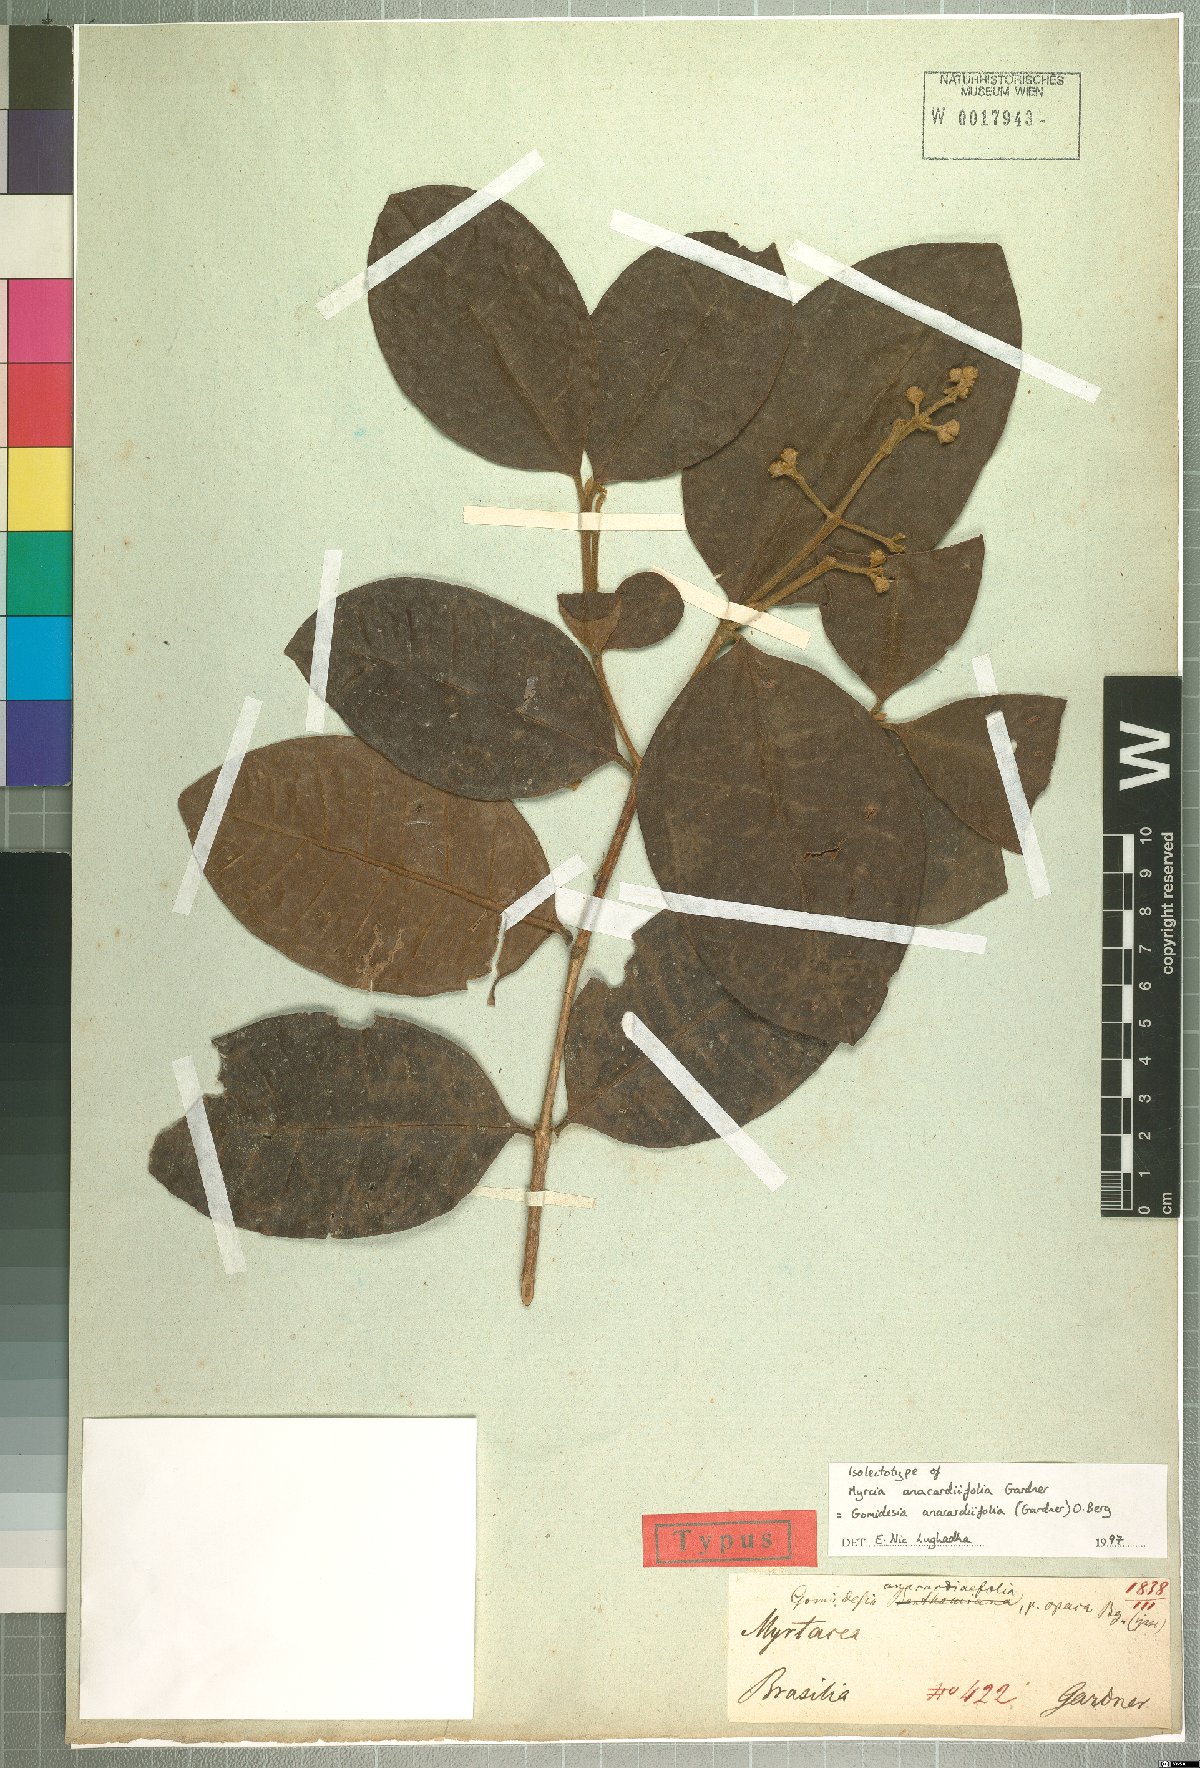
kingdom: Plantae
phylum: Tracheophyta
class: Magnoliopsida
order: Myrtales
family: Myrtaceae
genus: Myrcia
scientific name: Myrcia anacardiifolia
